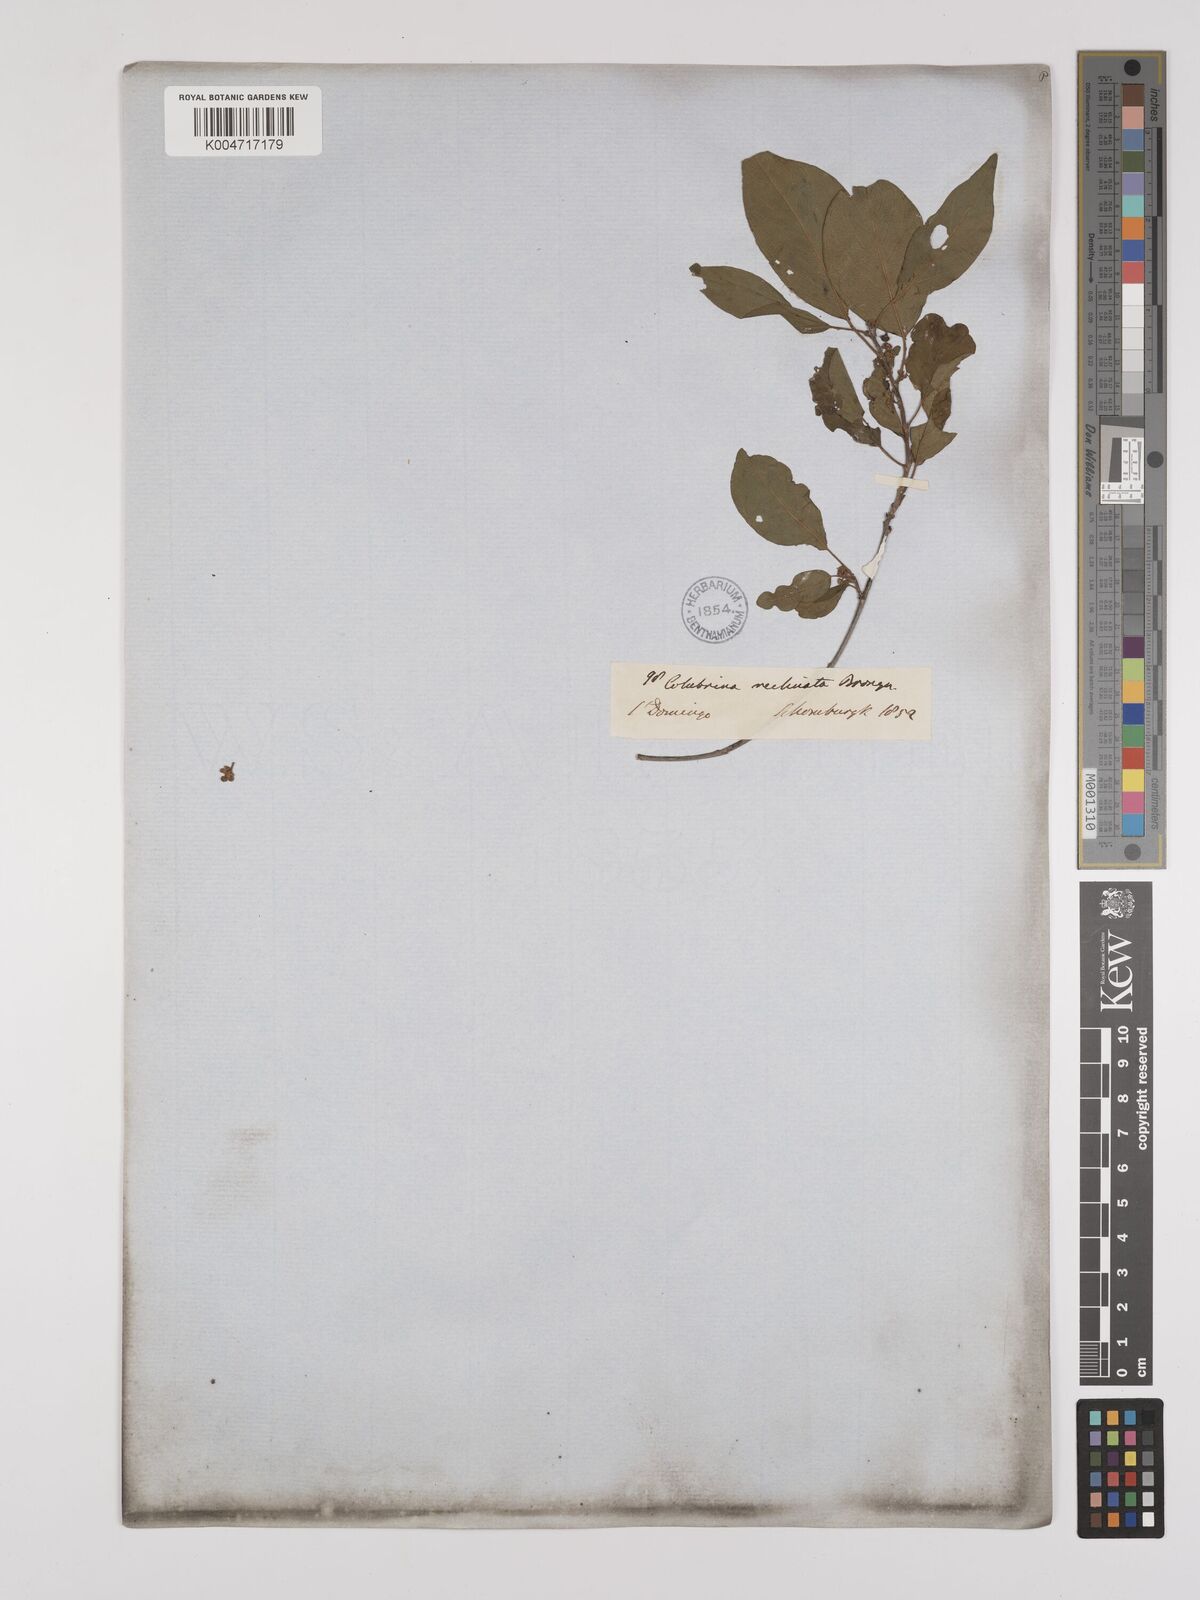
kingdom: Plantae
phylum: Tracheophyta
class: Magnoliopsida
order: Rosales
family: Rhamnaceae
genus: Colubrina
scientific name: Colubrina elliptica
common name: Soldierwood
